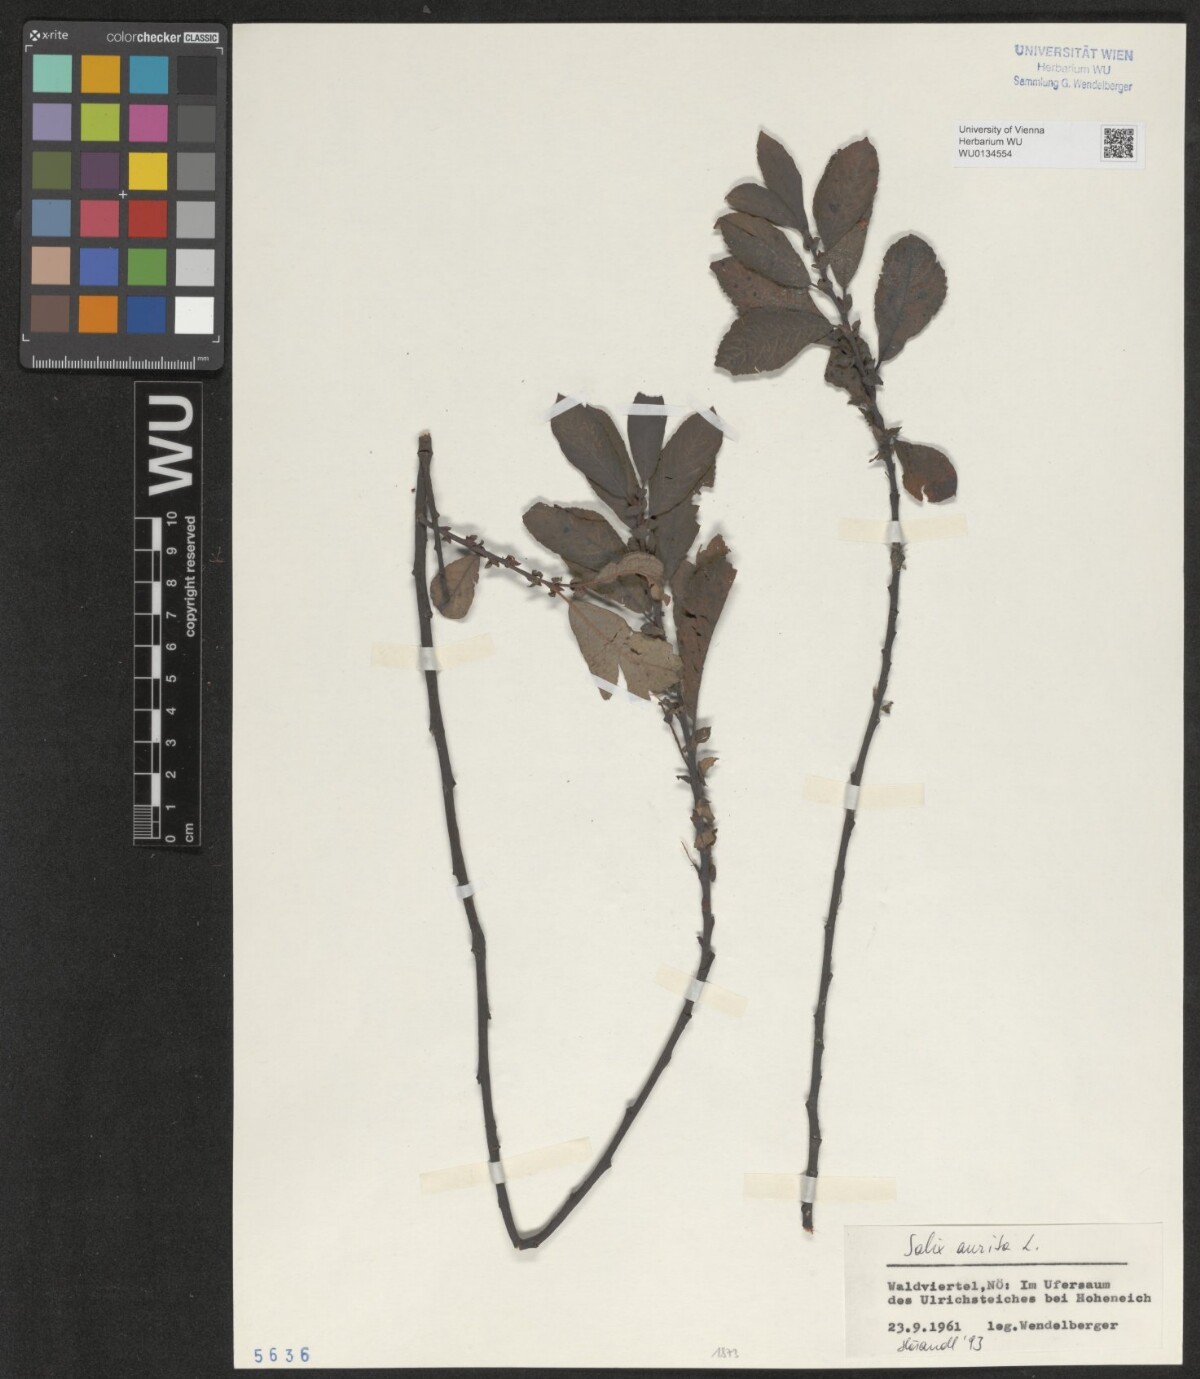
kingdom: Plantae
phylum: Tracheophyta
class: Magnoliopsida
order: Malpighiales
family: Salicaceae
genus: Salix
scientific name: Salix aurita
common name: Eared willow
